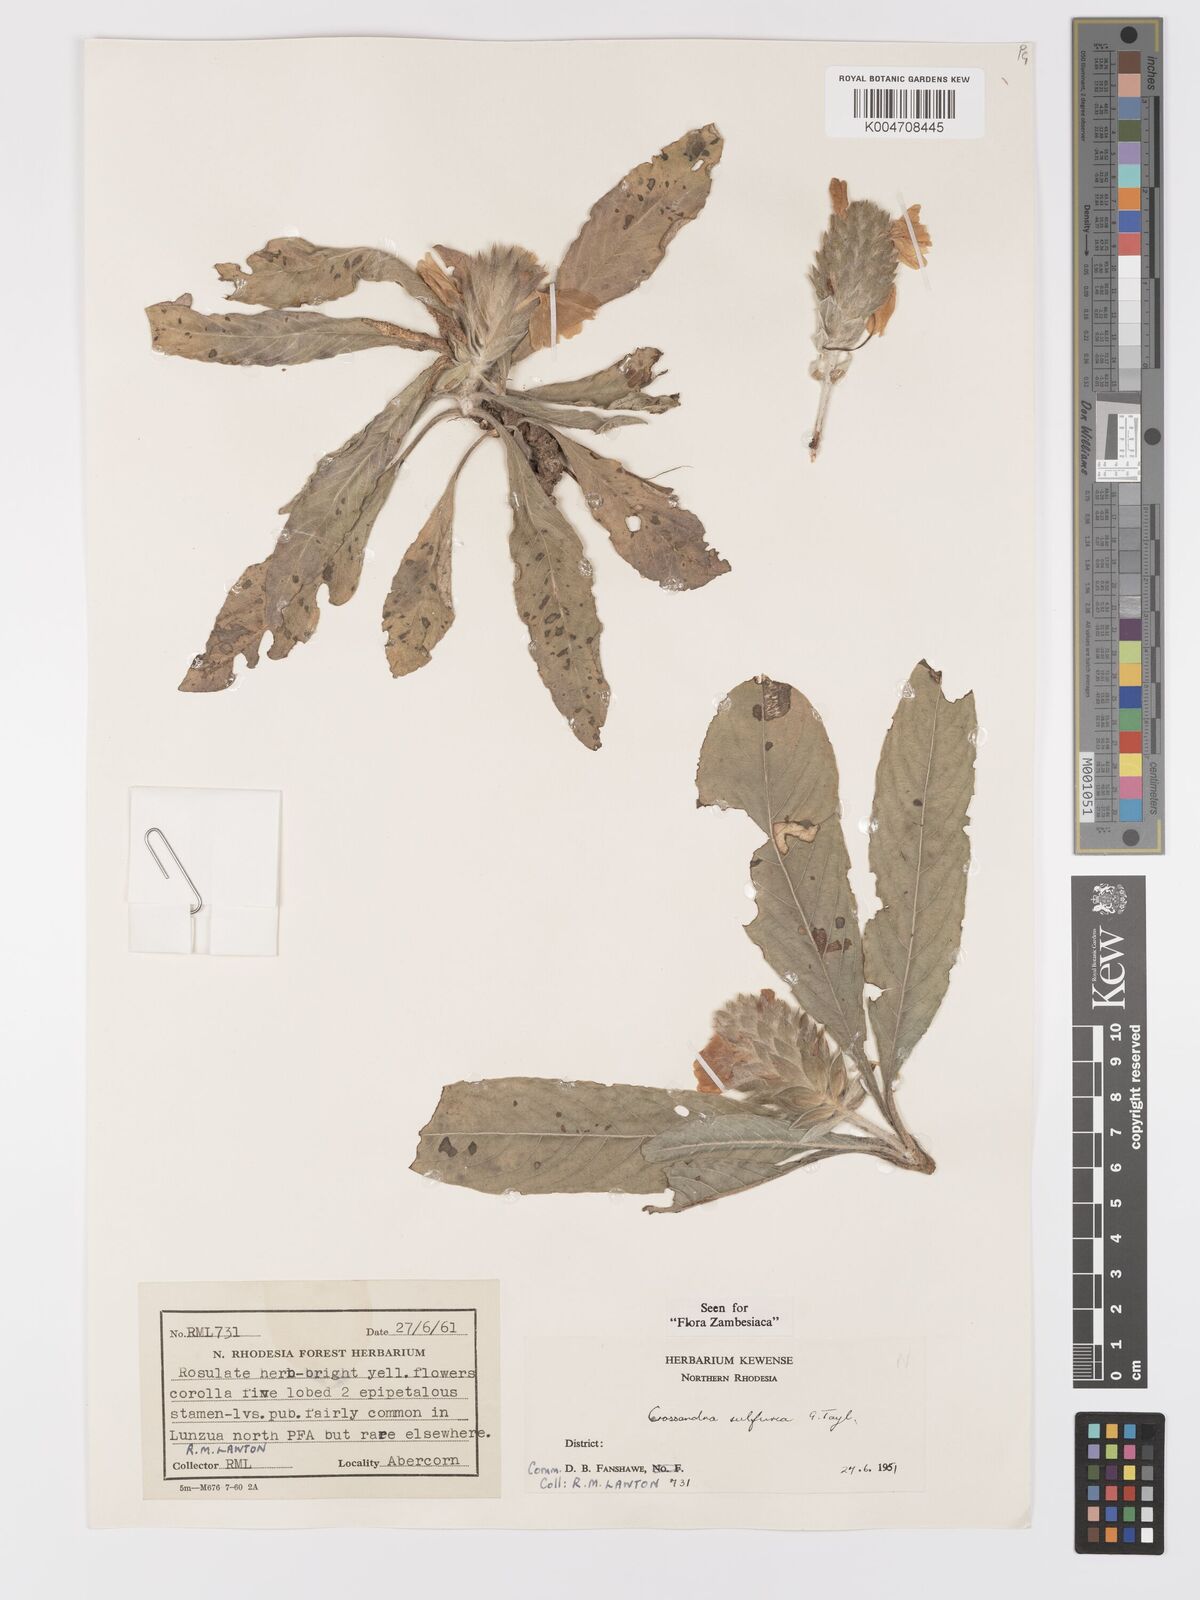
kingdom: Plantae
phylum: Tracheophyta
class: Magnoliopsida
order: Lamiales
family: Acanthaceae
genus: Crossandra
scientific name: Crossandra sulphurea
